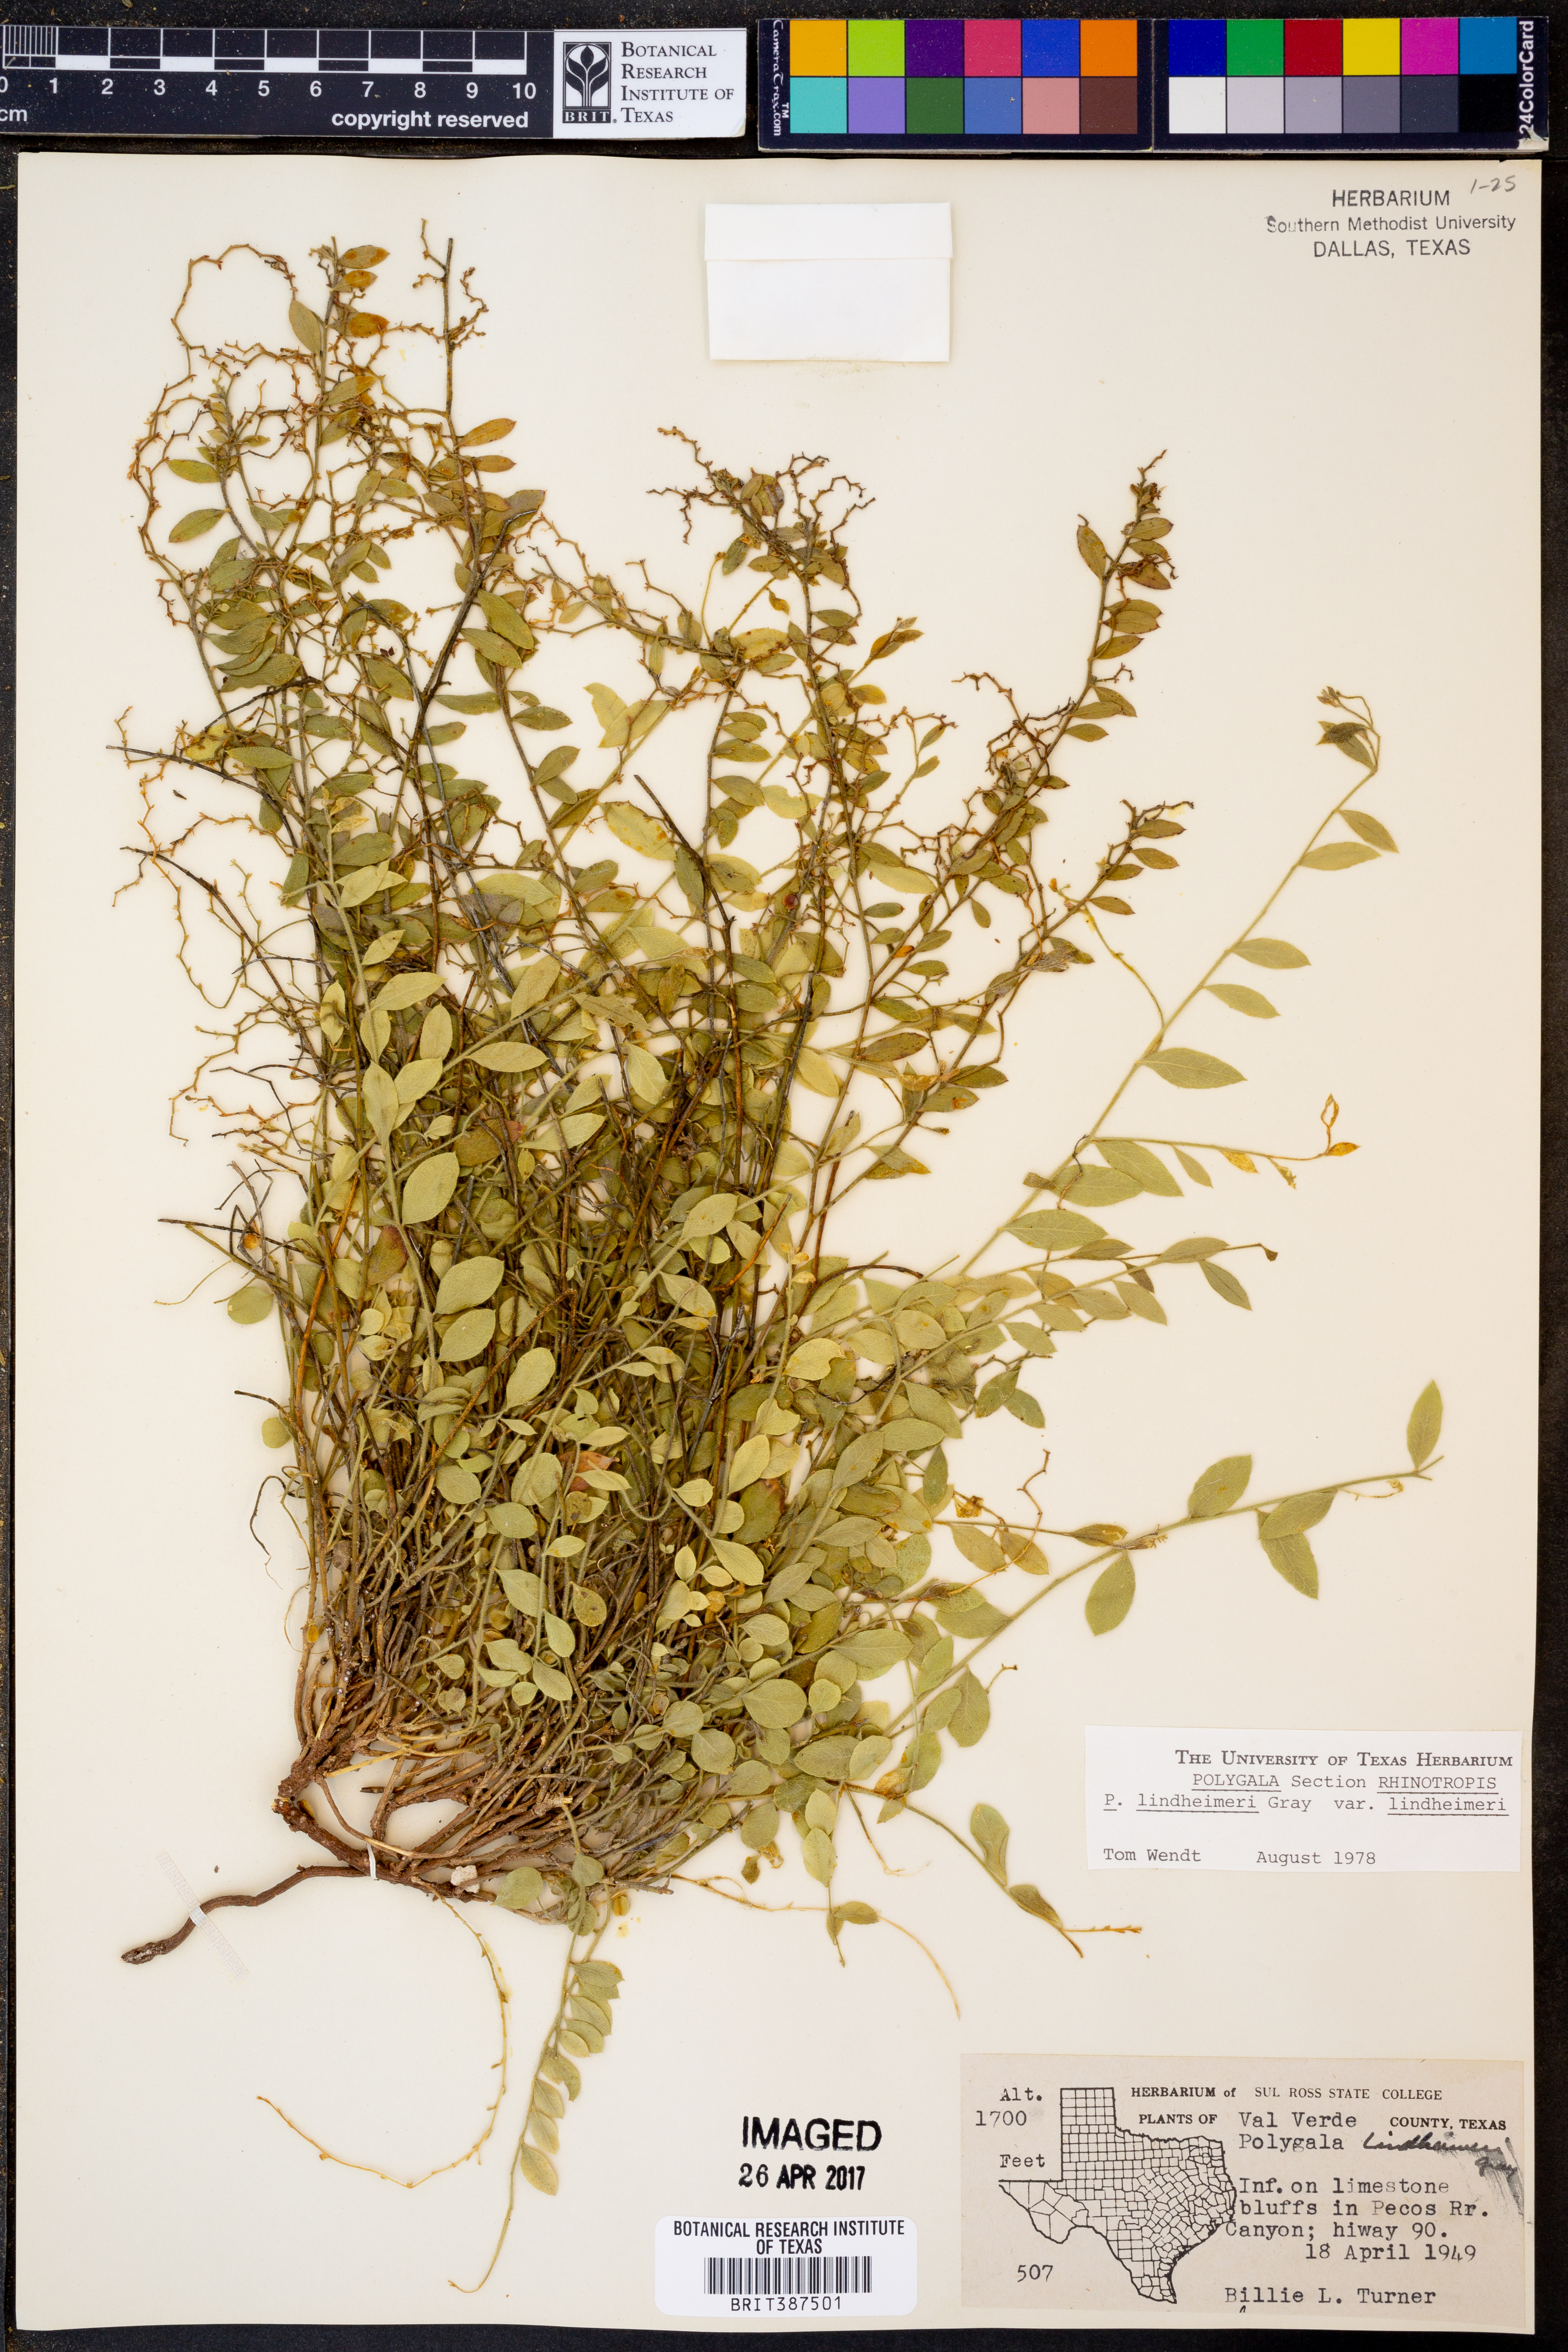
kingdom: Plantae
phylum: Tracheophyta
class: Magnoliopsida
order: Fabales
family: Polygalaceae
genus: Rhinotropis
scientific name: Rhinotropis lindheimeri
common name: Shrubby milkwort
